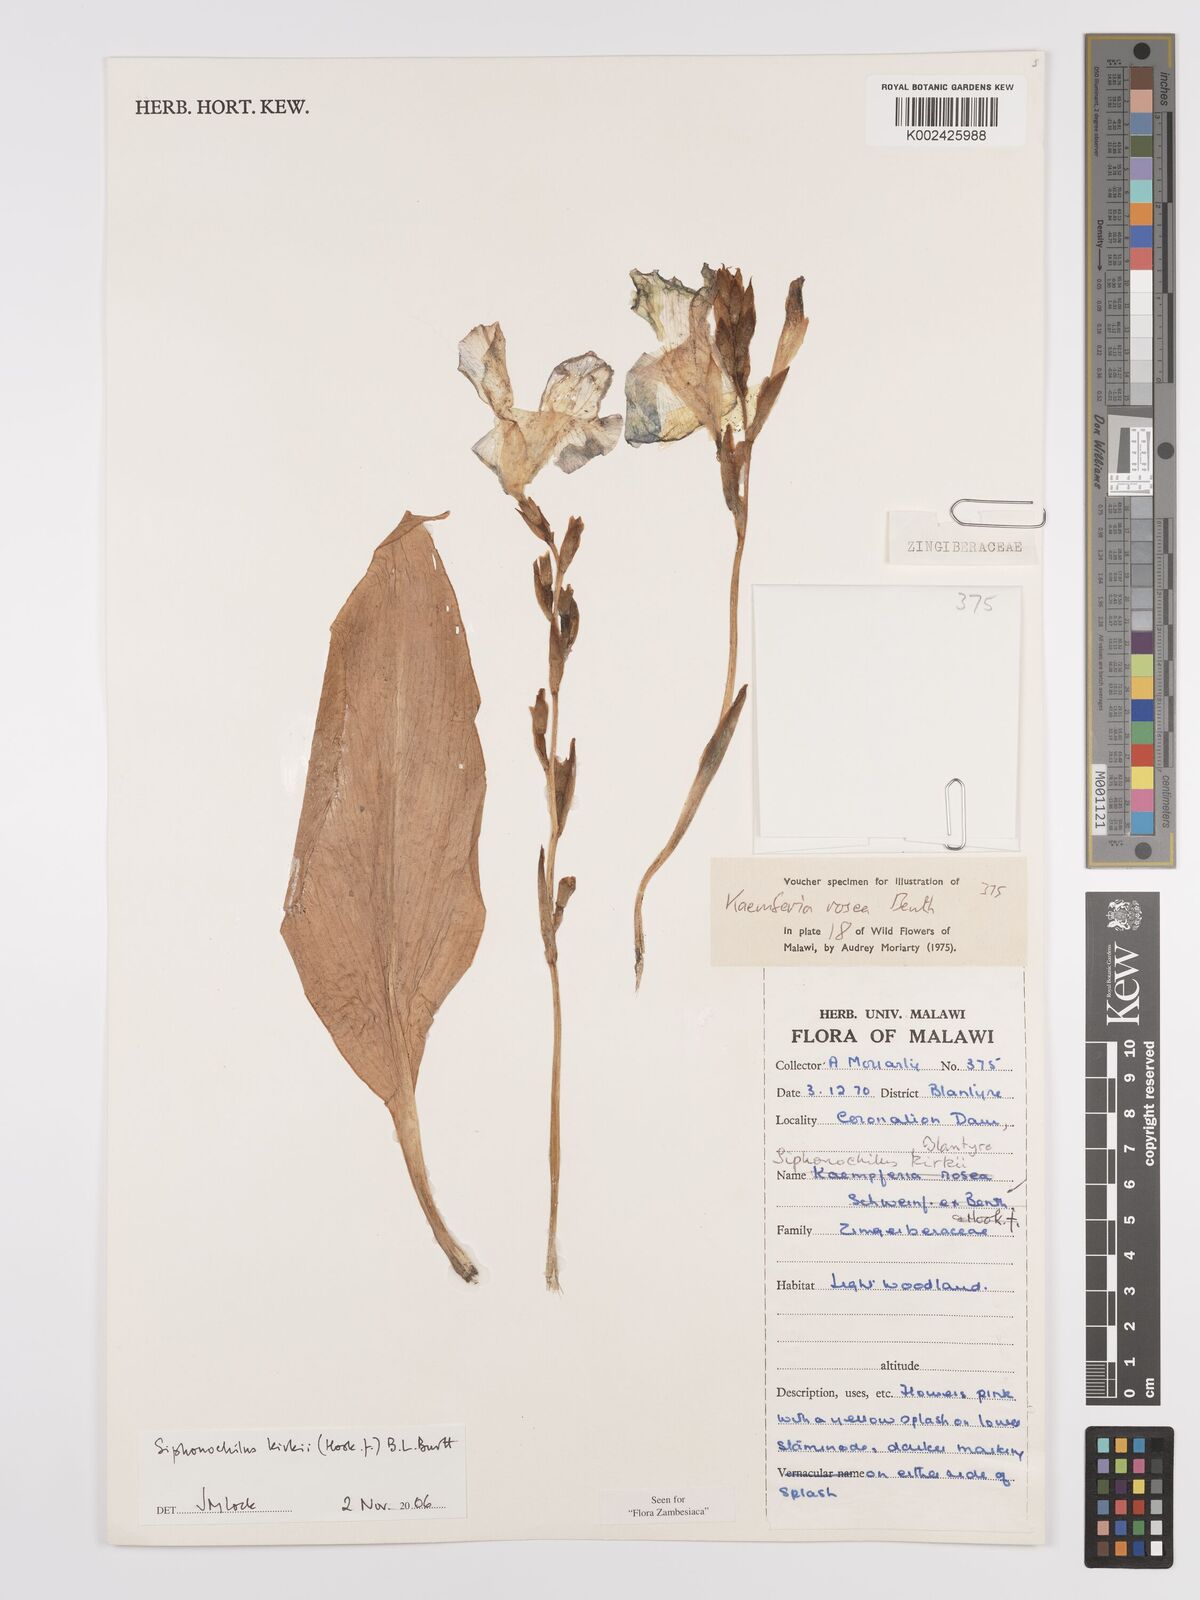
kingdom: Plantae
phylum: Tracheophyta
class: Liliopsida
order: Zingiberales
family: Zingiberaceae
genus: Siphonochilus
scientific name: Siphonochilus kirkii
